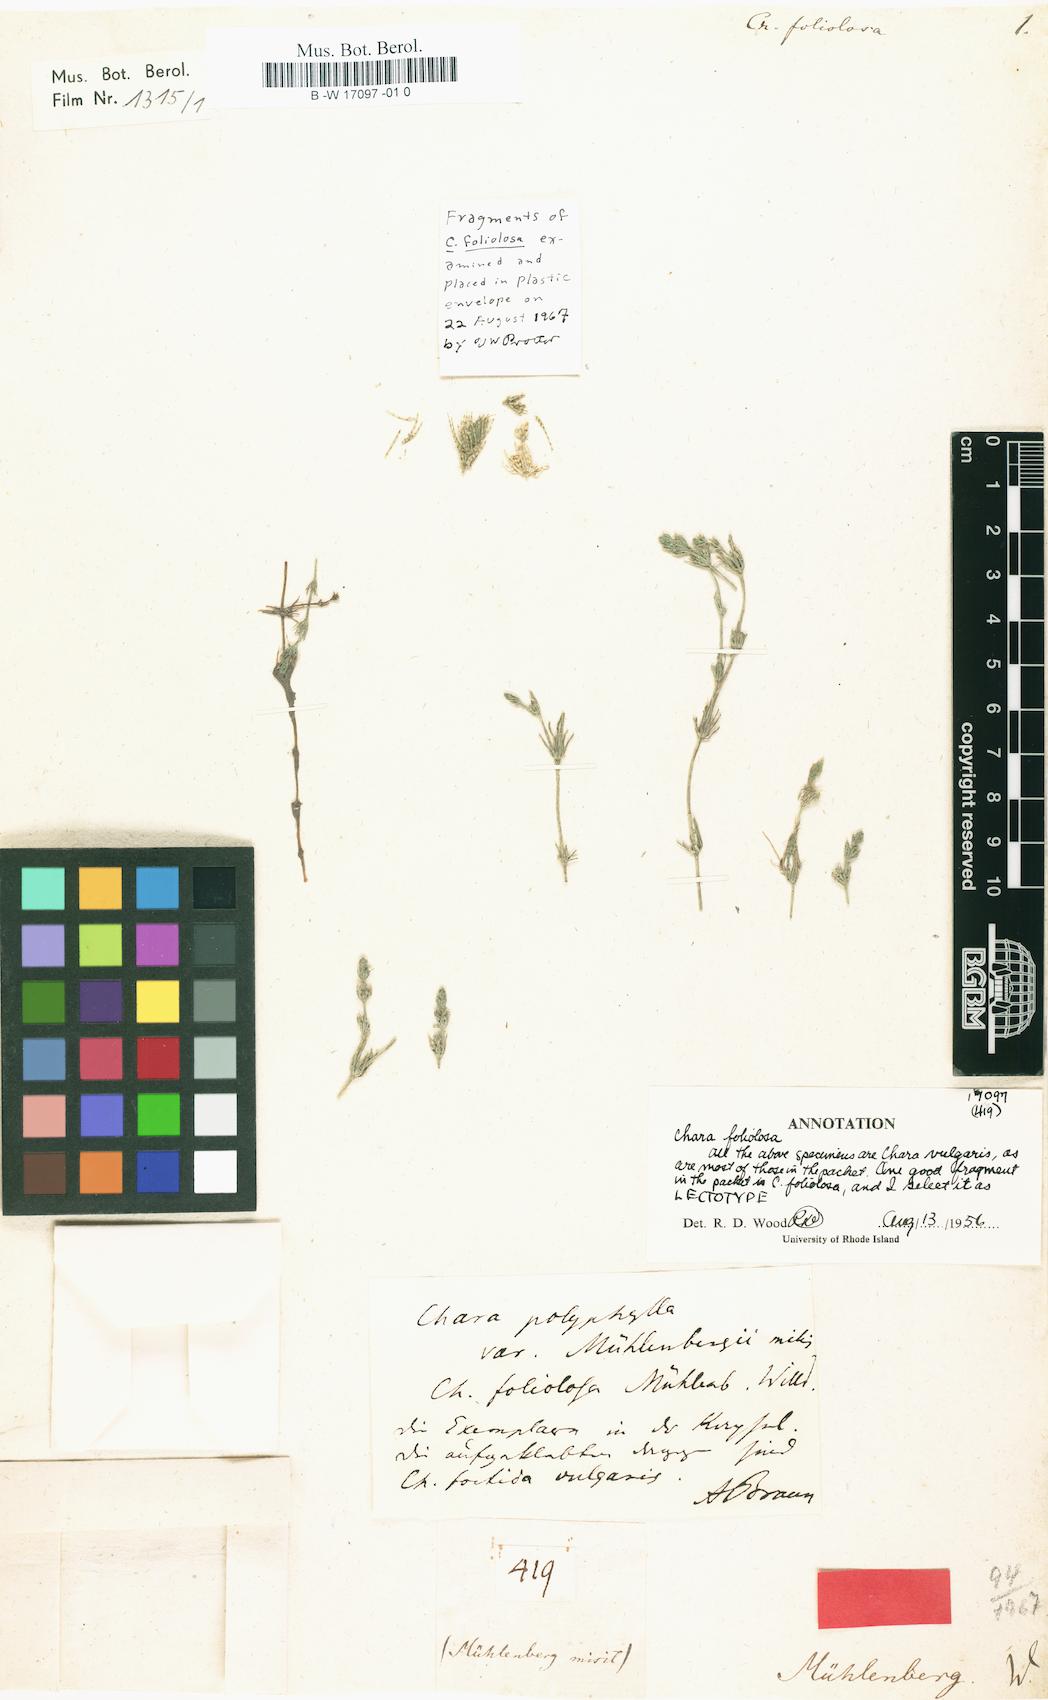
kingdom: Plantae
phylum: Charophyta
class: Charophyceae
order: Charales
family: Characeae
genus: Chara
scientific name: Chara foliolosa
